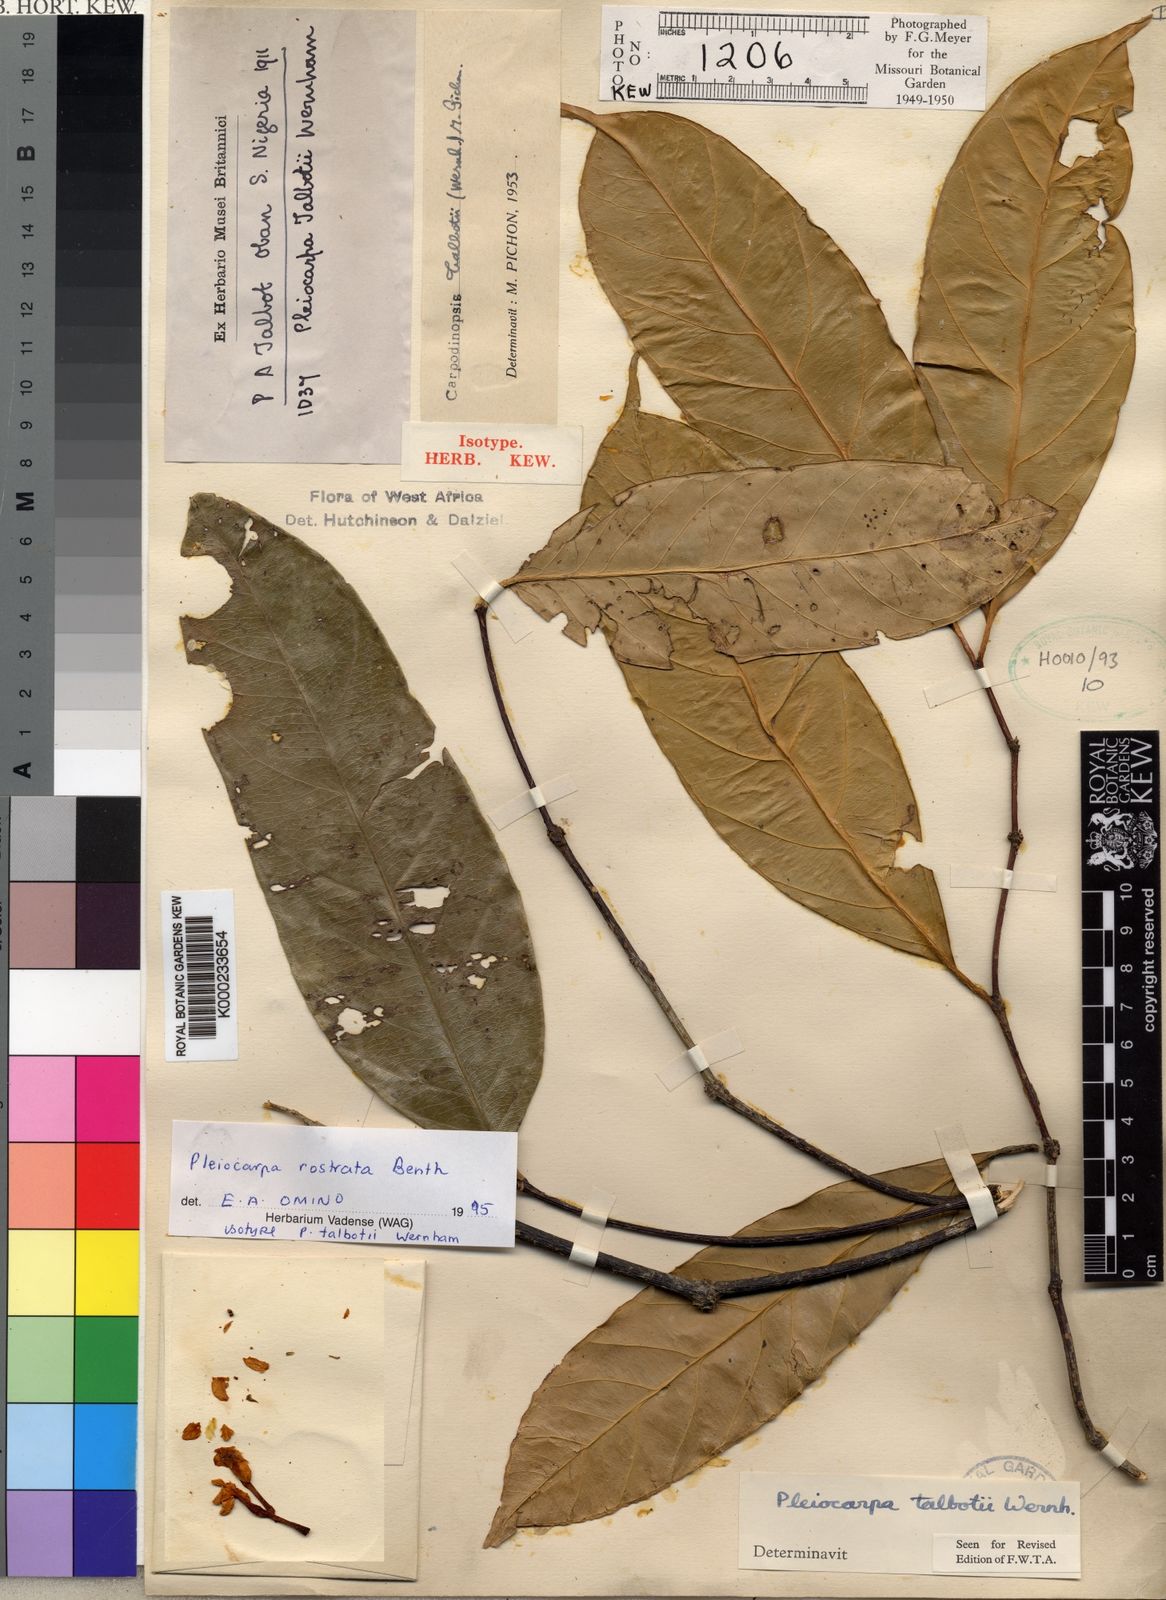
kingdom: Plantae
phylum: Tracheophyta
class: Magnoliopsida
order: Gentianales
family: Apocynaceae
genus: Pleiocarpa
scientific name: Pleiocarpa rostrata
